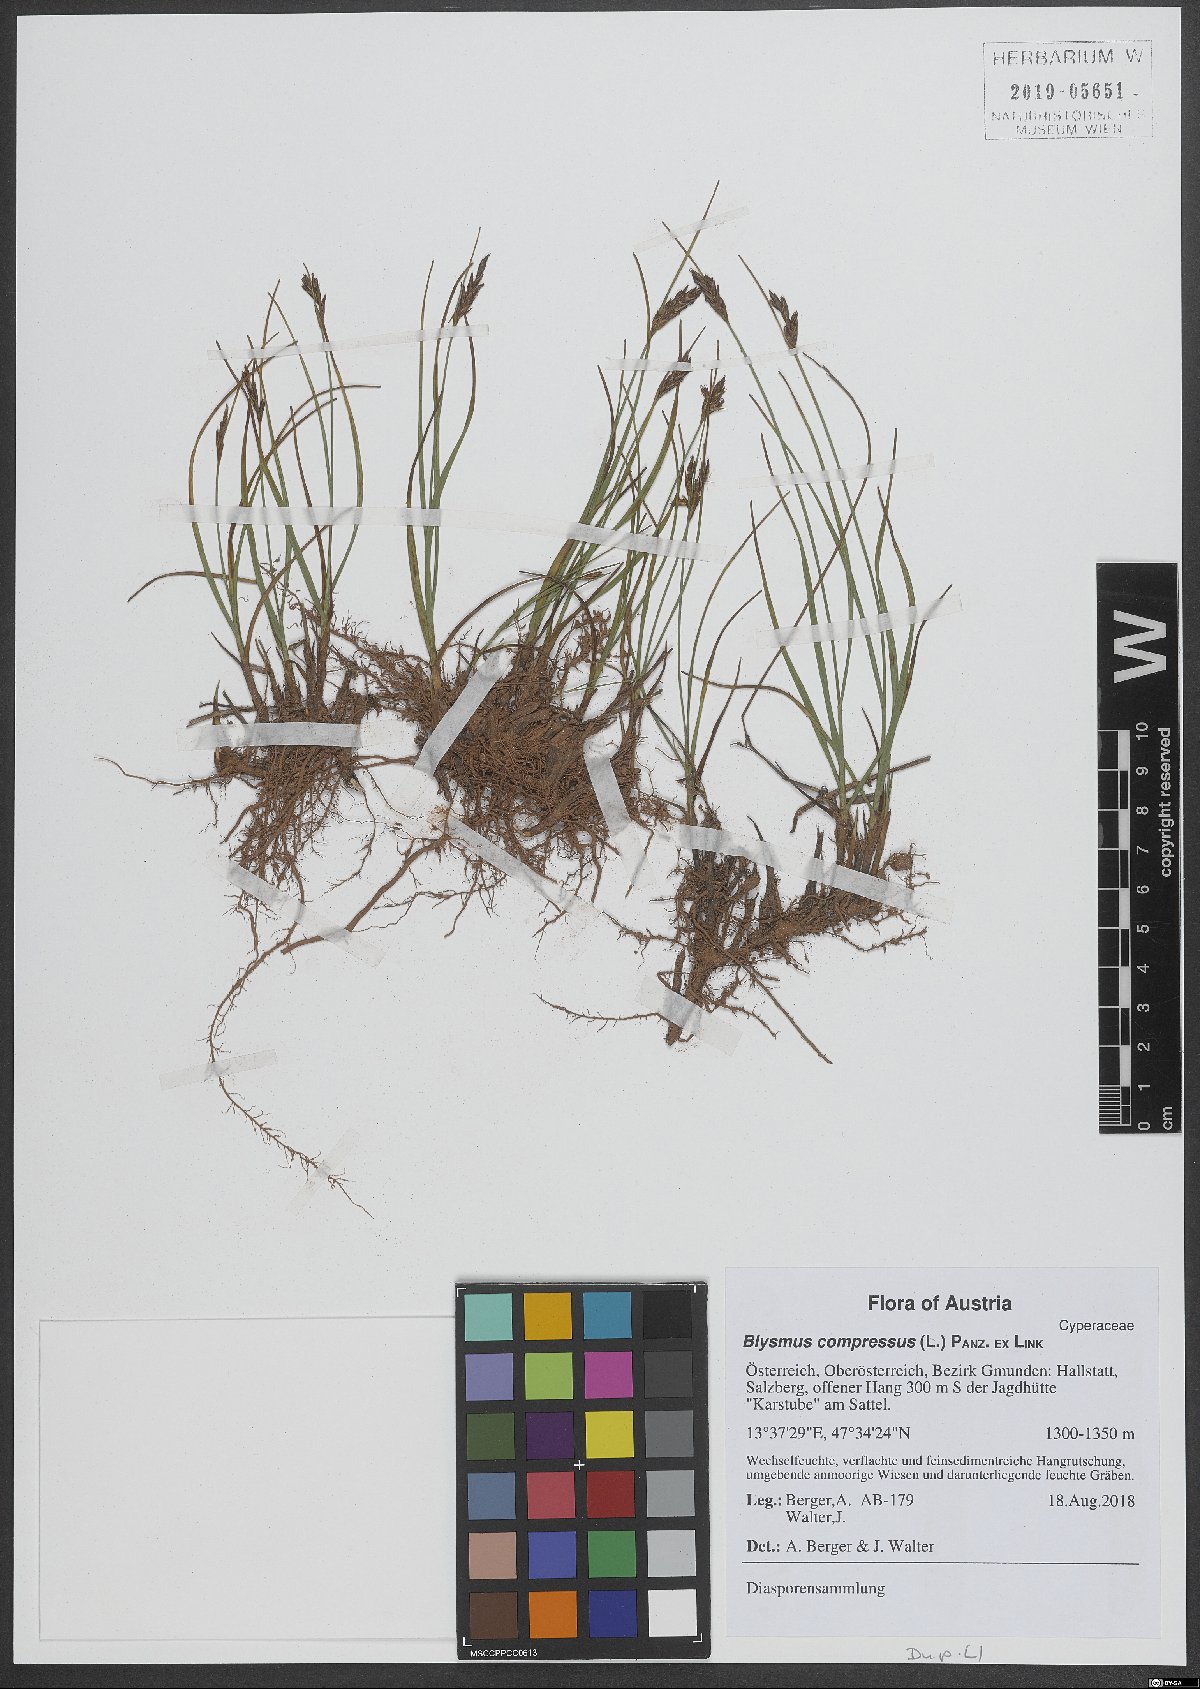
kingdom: Plantae
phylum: Tracheophyta
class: Liliopsida
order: Poales
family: Cyperaceae
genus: Blysmus
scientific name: Blysmus compressus
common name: Flat-sedge
